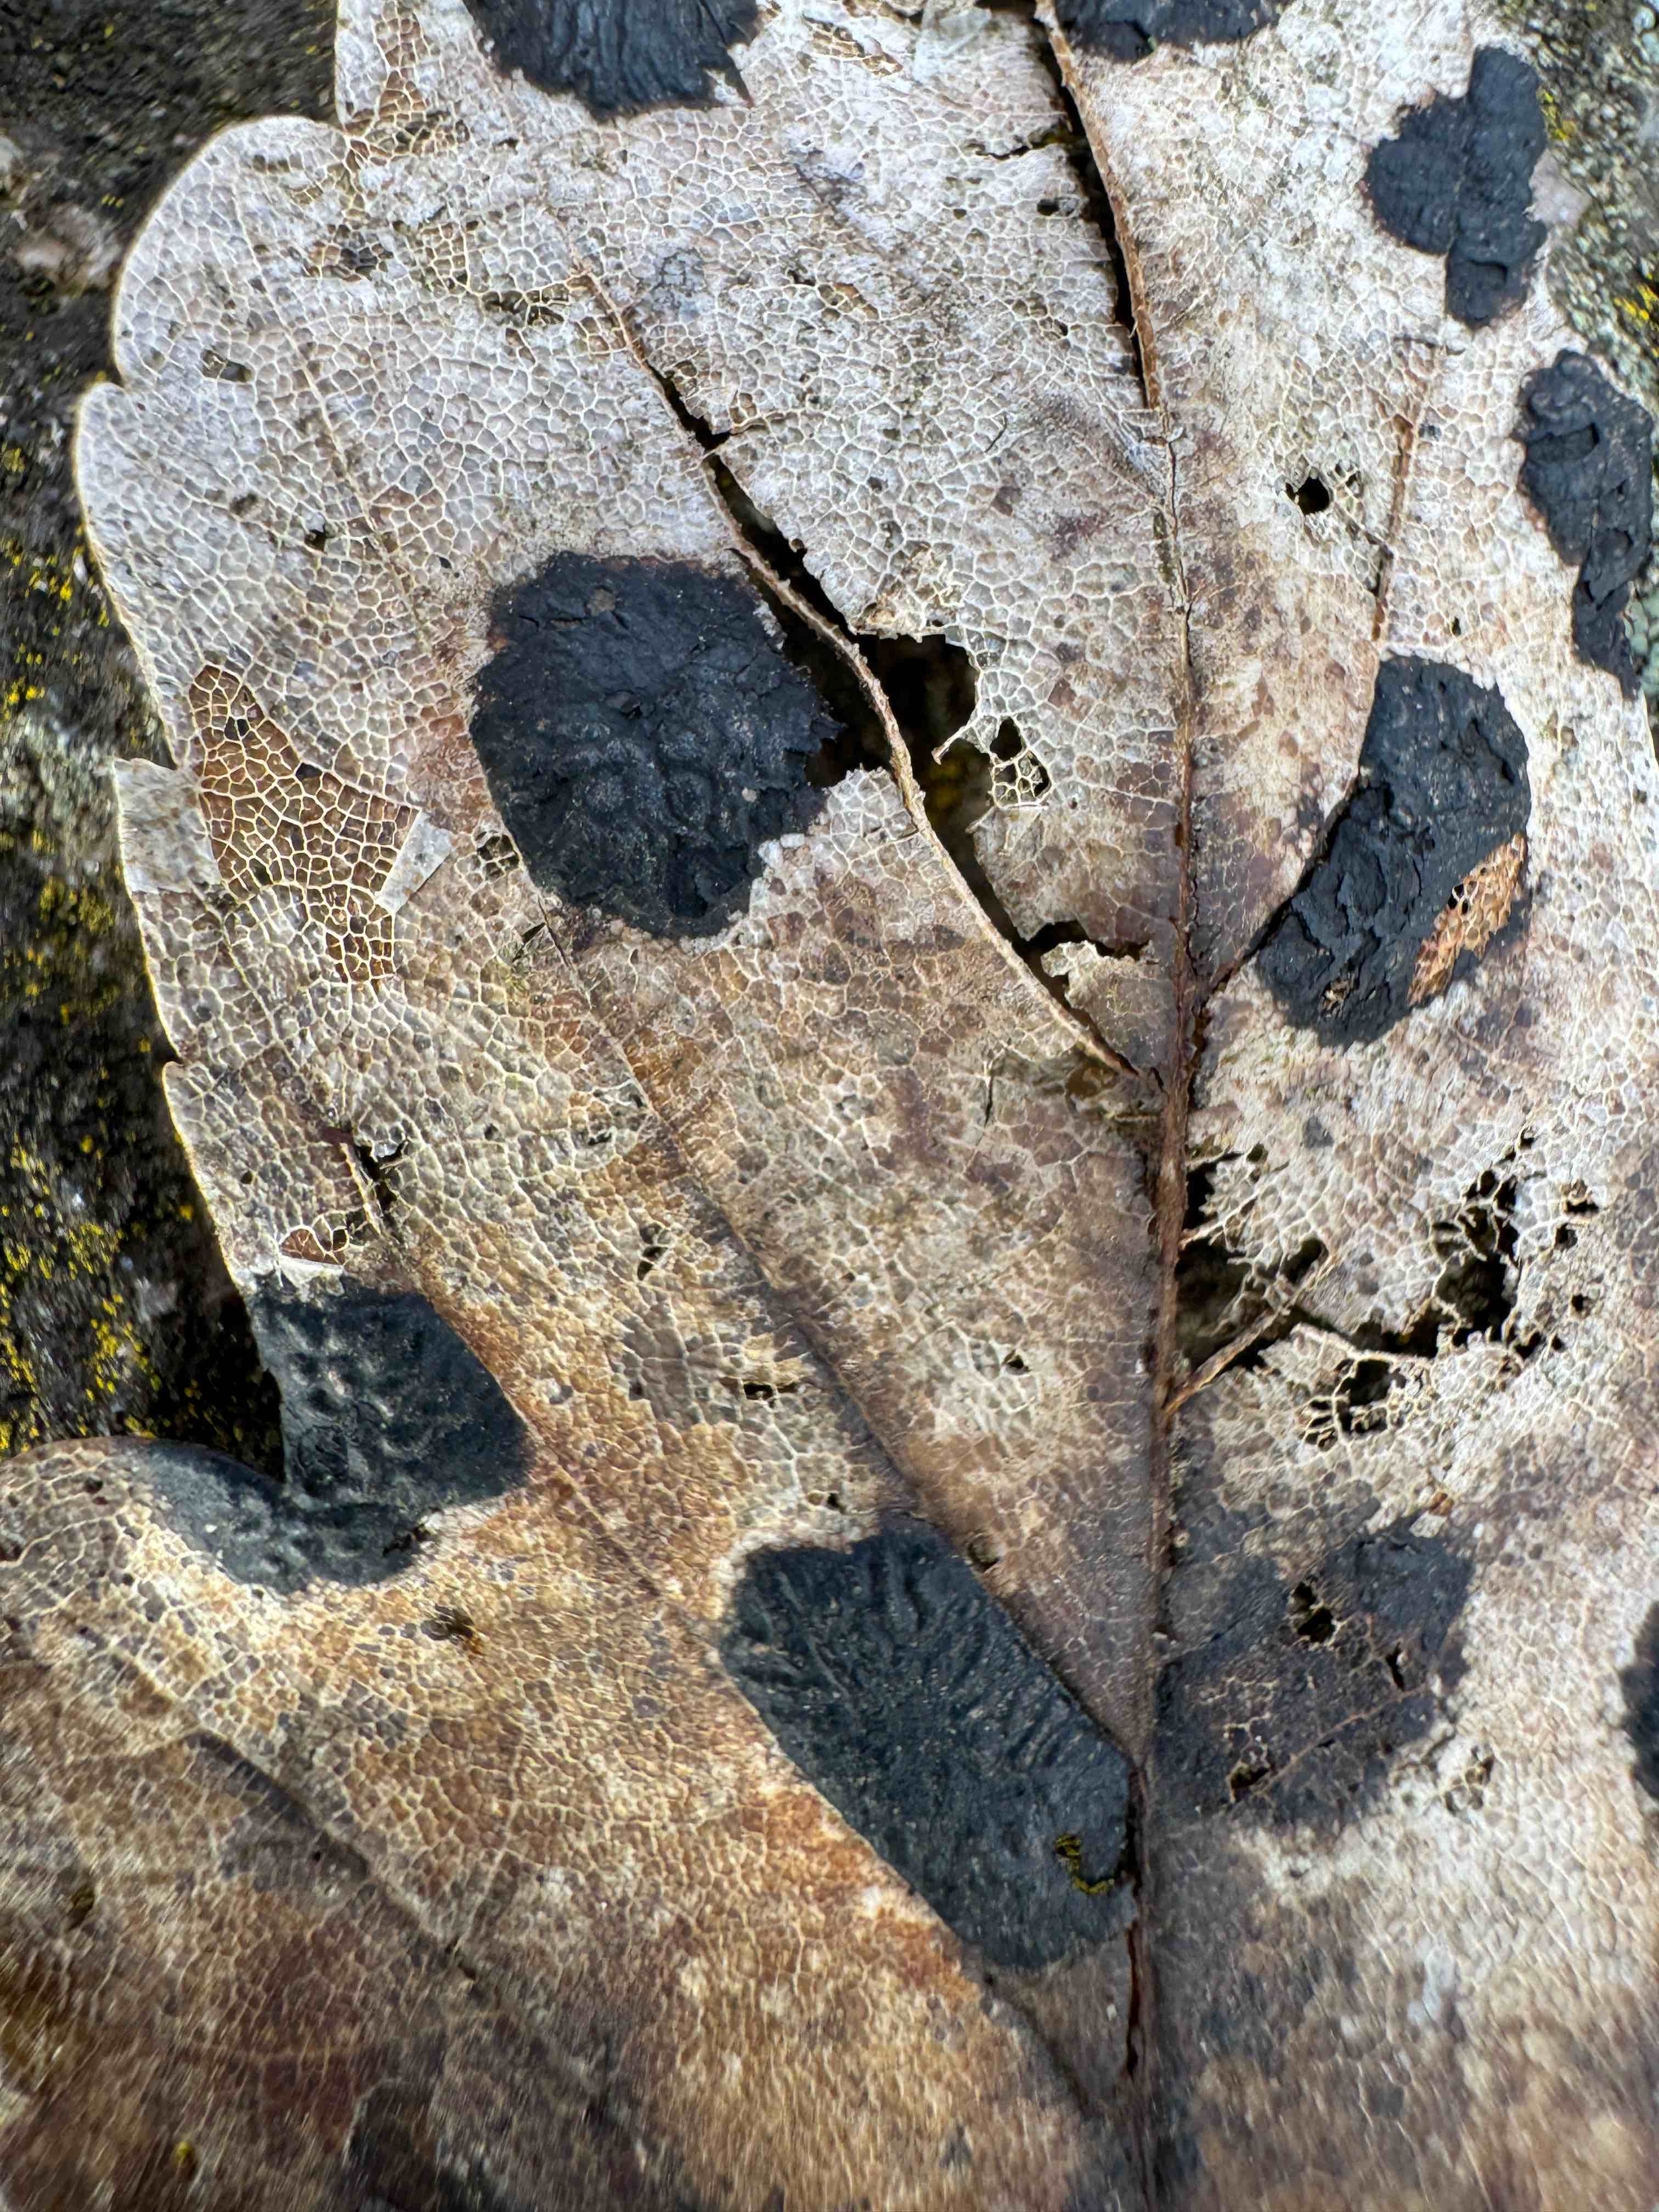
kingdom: Fungi
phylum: Ascomycota
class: Leotiomycetes
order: Rhytismatales
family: Rhytismataceae
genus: Rhytisma
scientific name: Rhytisma acerinum
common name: ahorn-rynkeplet
